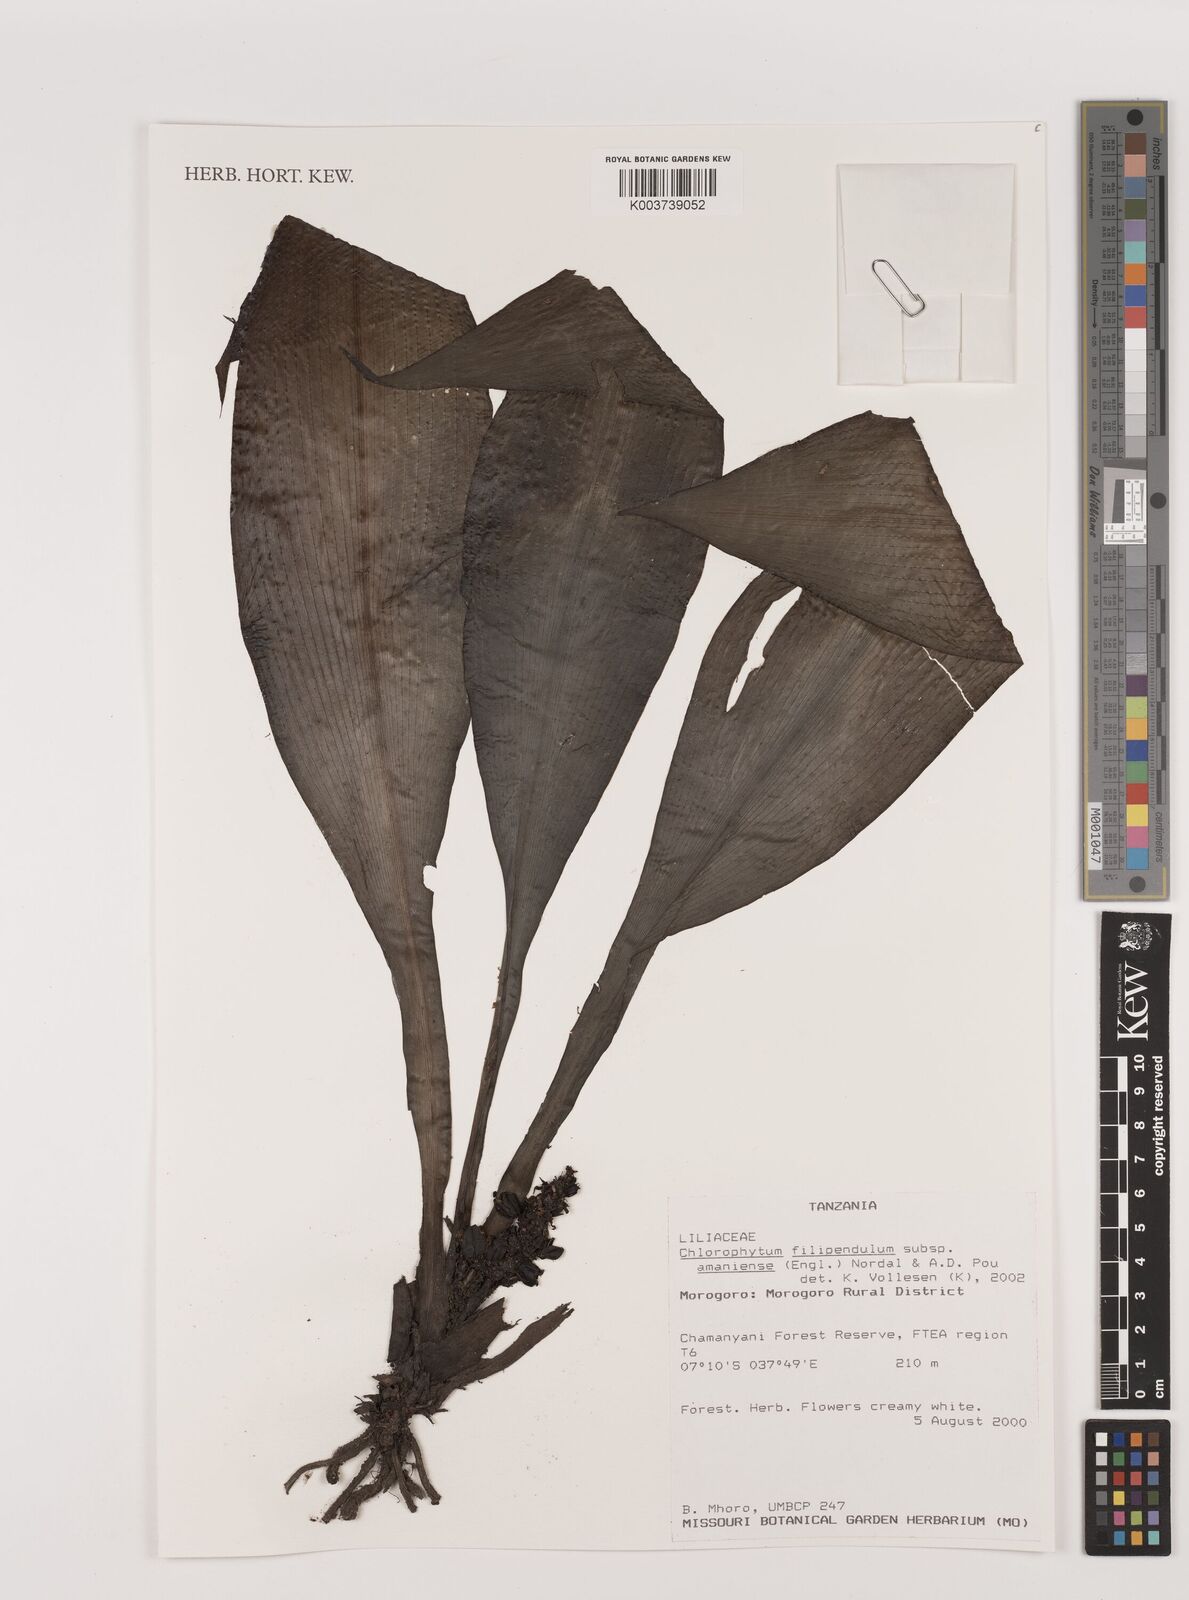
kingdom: Plantae
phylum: Tracheophyta
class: Liliopsida
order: Asparagales
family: Asparagaceae
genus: Chlorophytum
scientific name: Chlorophytum filipendulum
